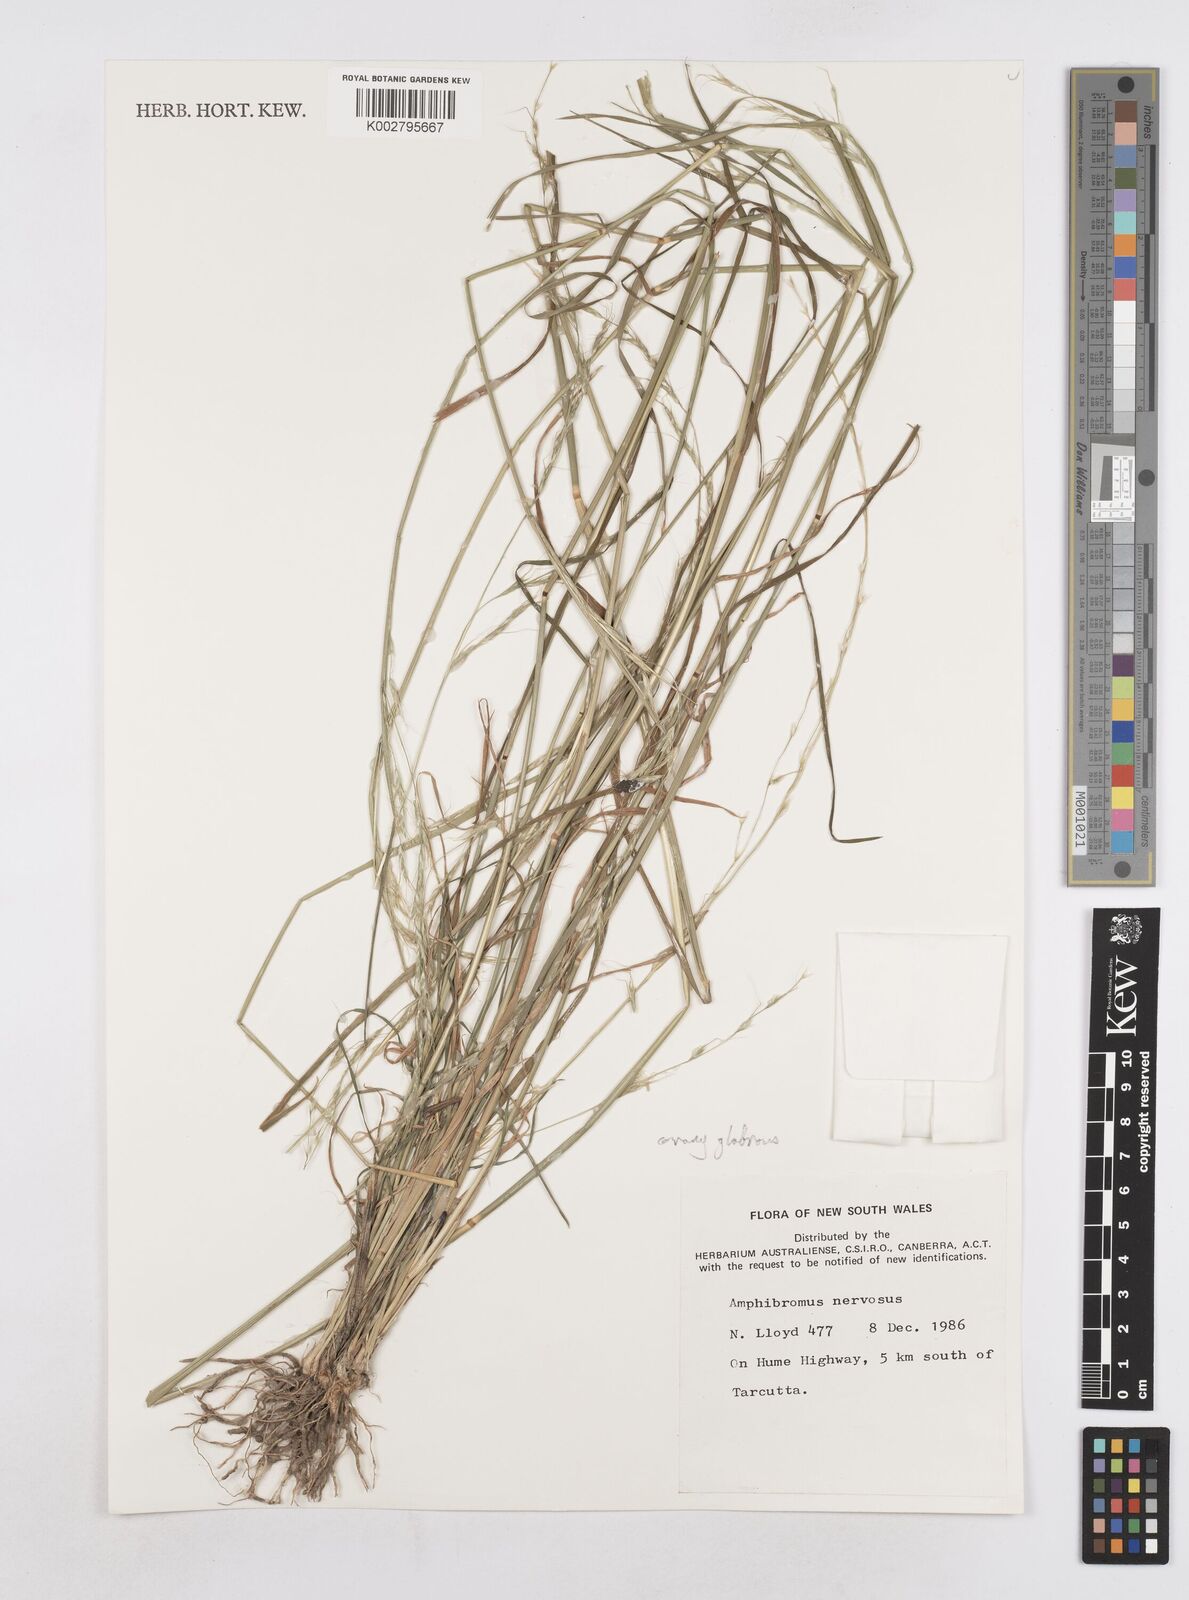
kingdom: Plantae
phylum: Tracheophyta
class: Liliopsida
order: Poales
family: Poaceae
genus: Amphibromus
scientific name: Amphibromus neesii
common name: Australian wallaby grass
